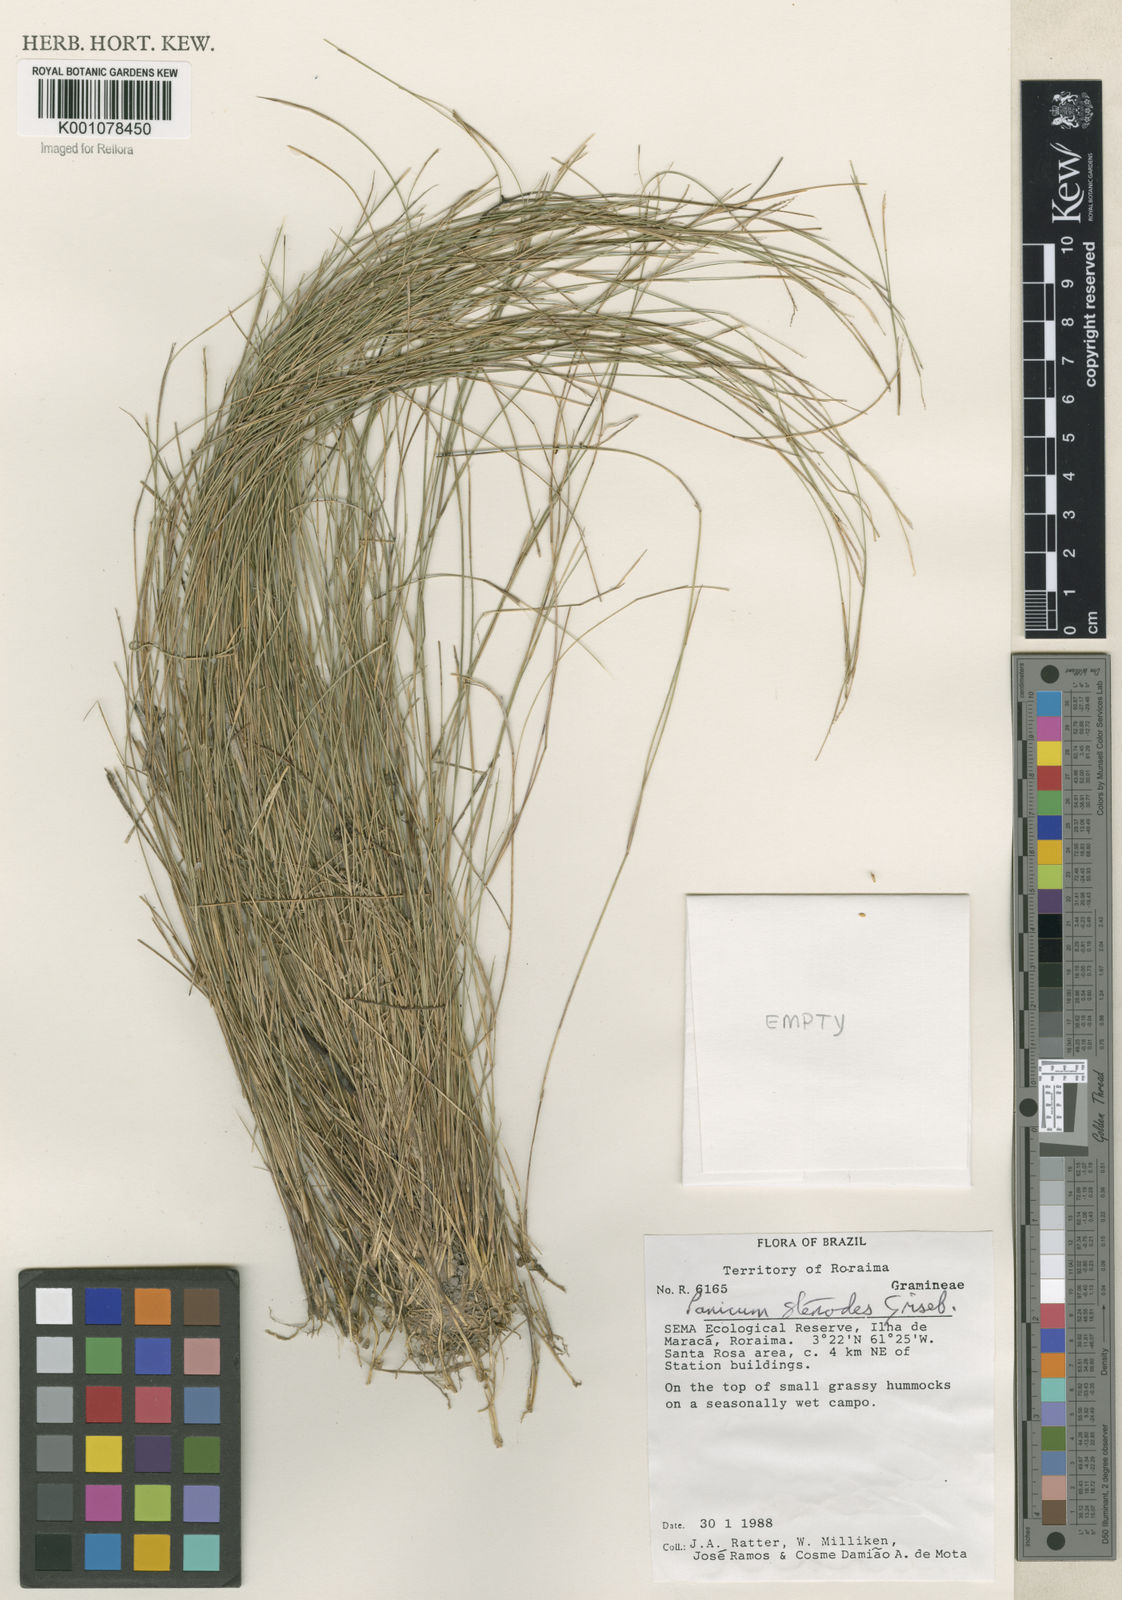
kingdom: Plantae
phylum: Tracheophyta
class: Liliopsida
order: Poales
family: Poaceae
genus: Coleataenia
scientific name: Coleataenia stenodes
